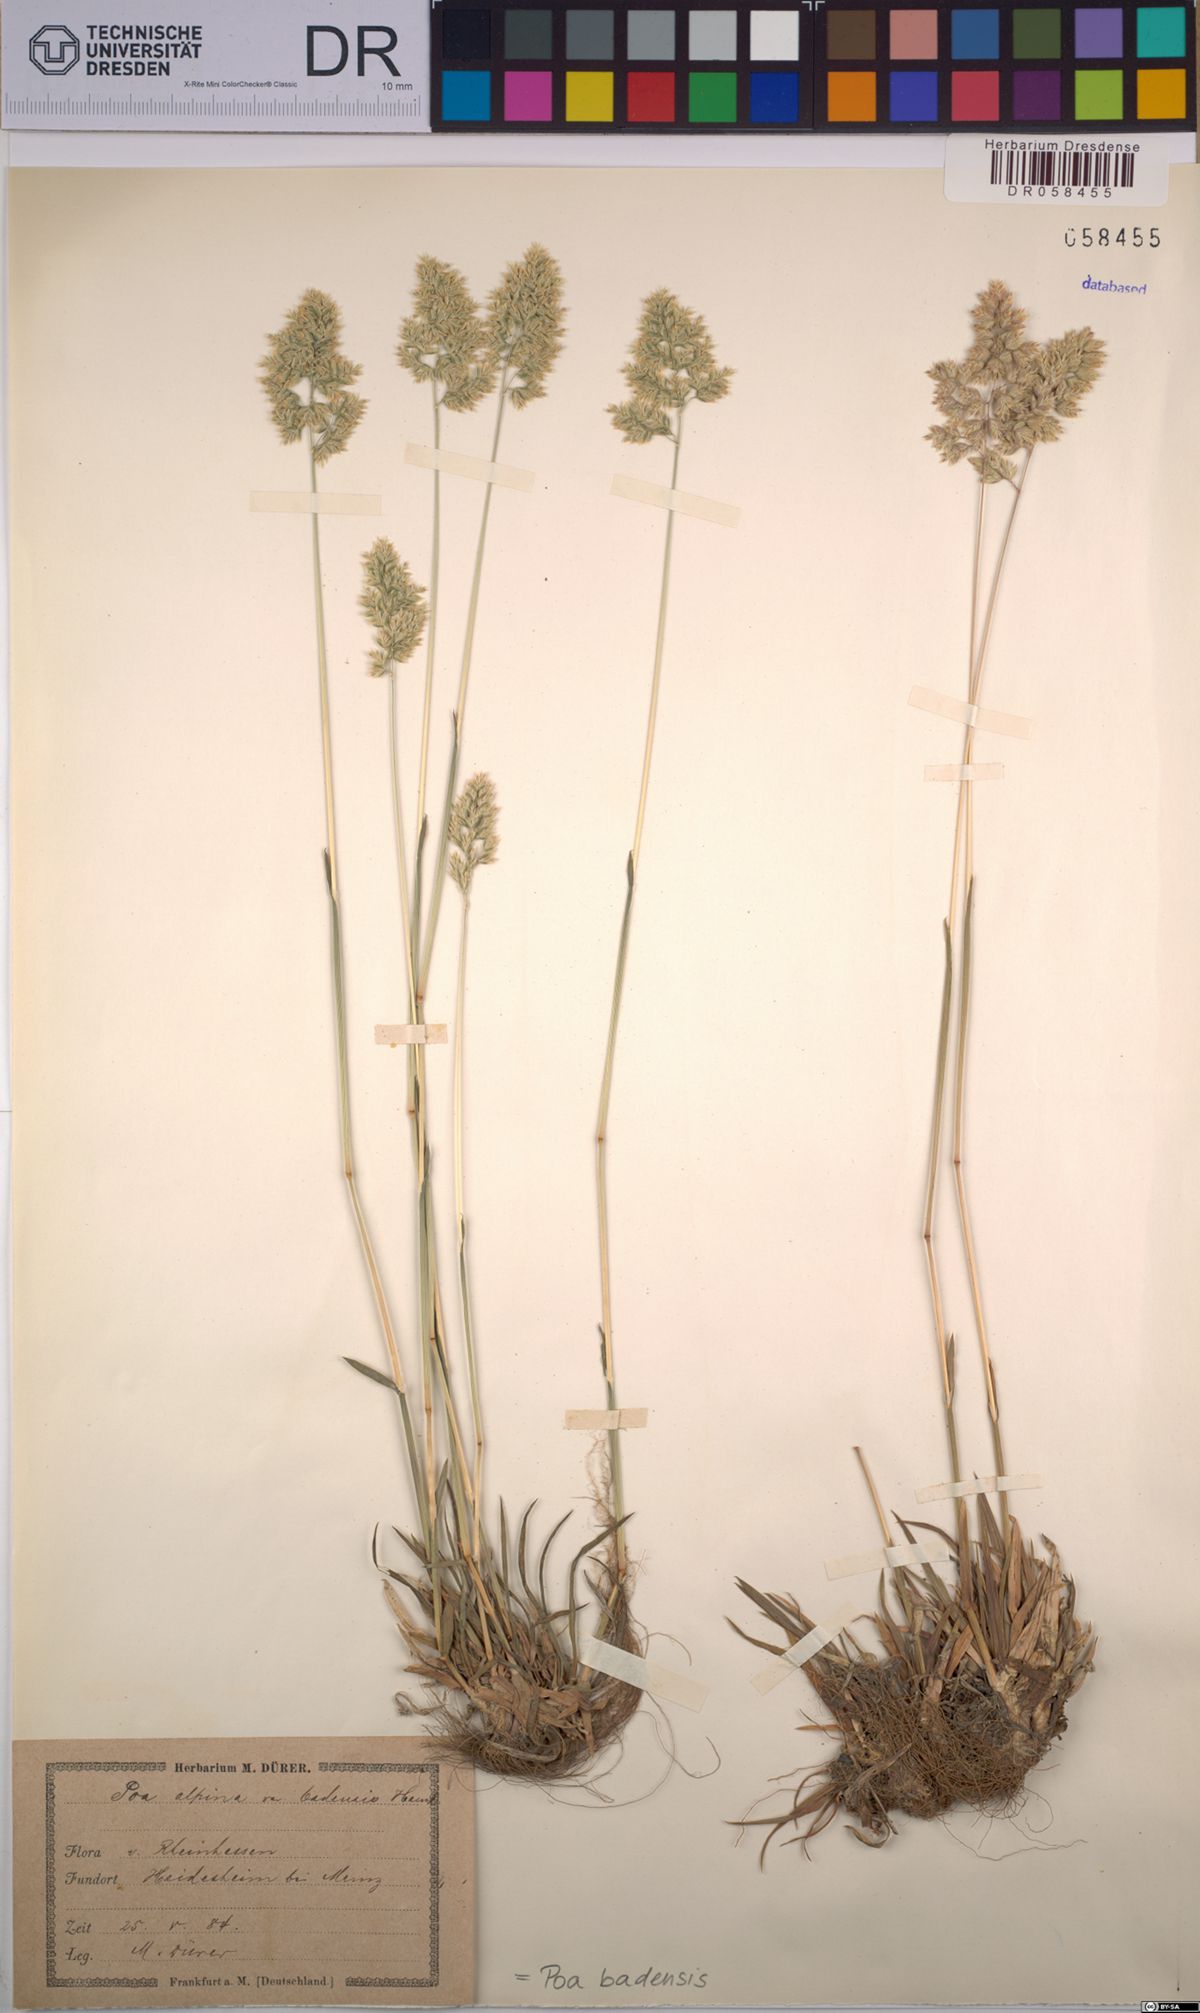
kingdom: Plantae
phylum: Tracheophyta
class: Liliopsida
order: Poales
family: Poaceae
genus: Poa
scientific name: Poa badensis
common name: Baden's bluegrass
